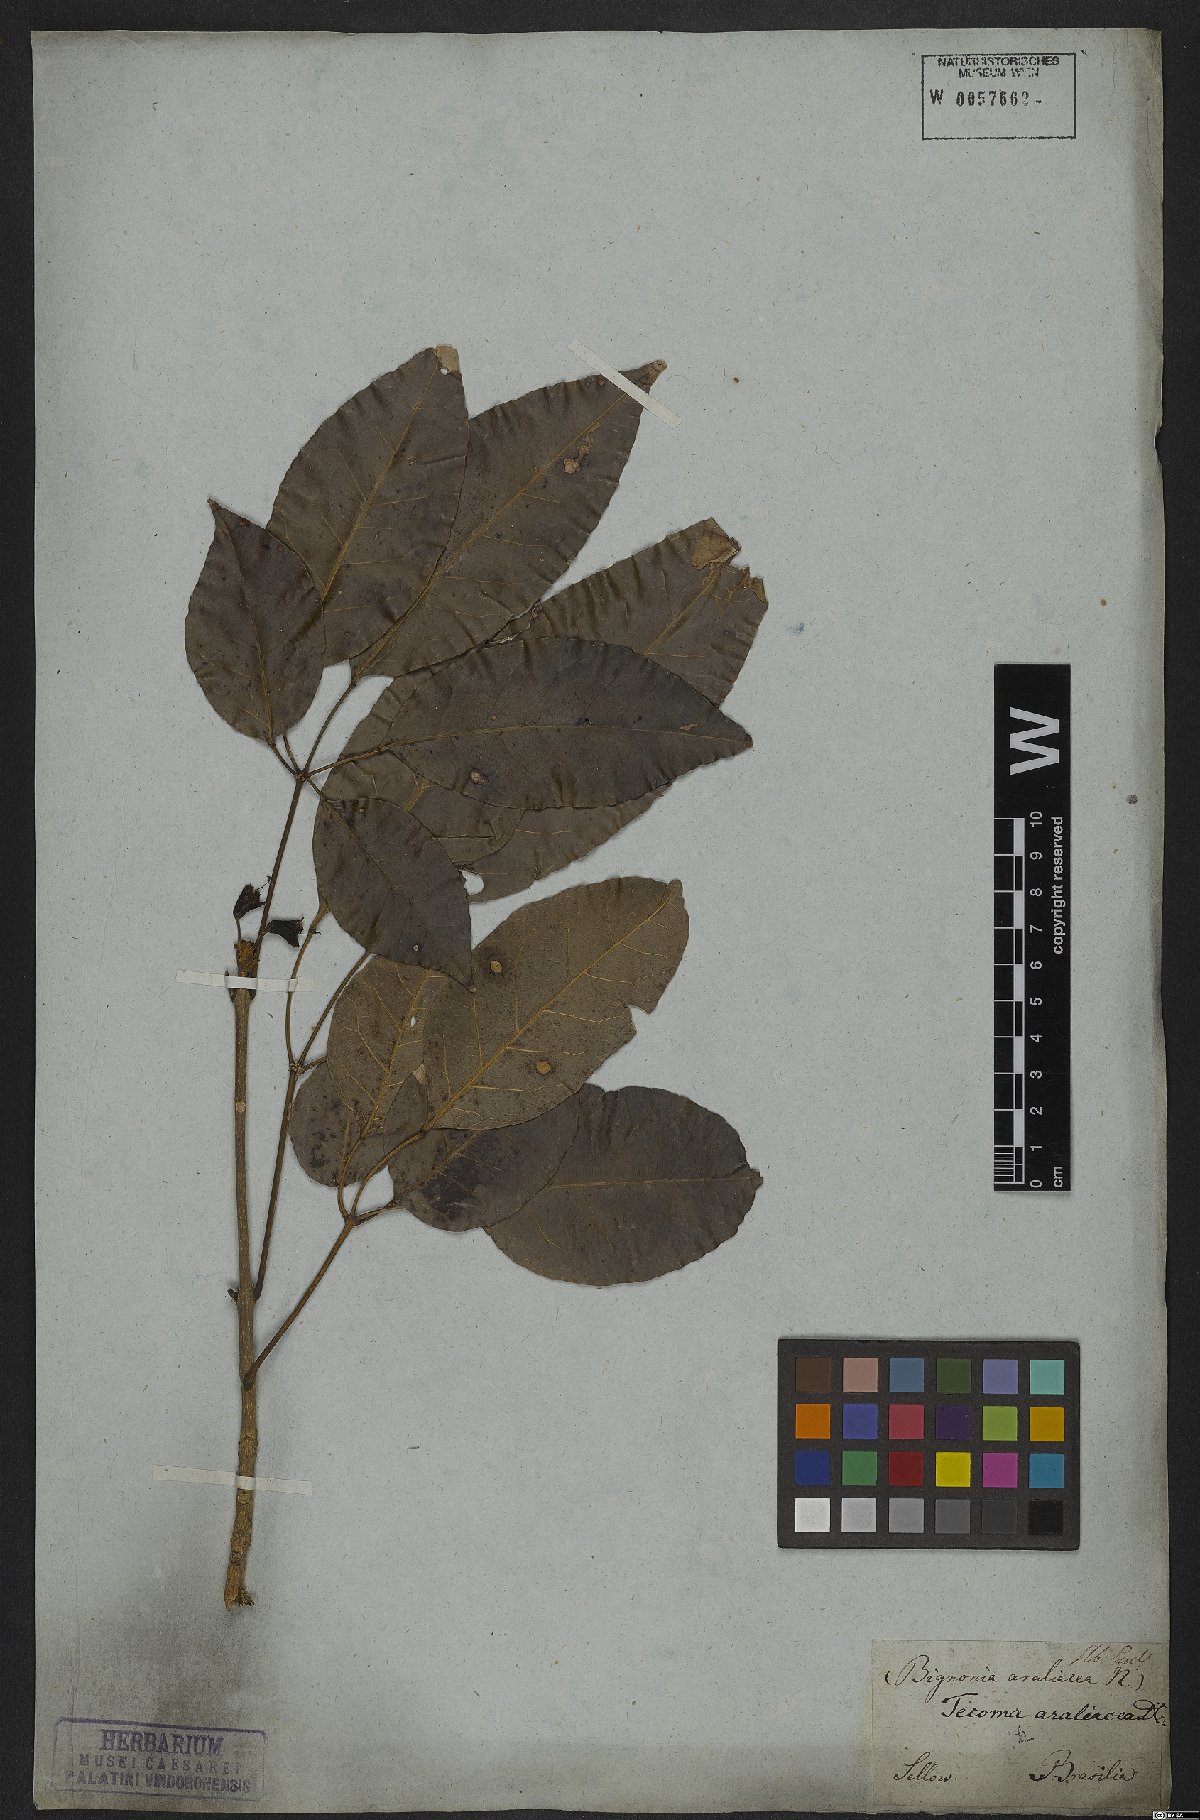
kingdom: Plantae
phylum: Tracheophyta
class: Magnoliopsida
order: Lamiales
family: Bignoniaceae
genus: Handroanthus
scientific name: Handroanthus serratifolius
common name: Yellow ipe
